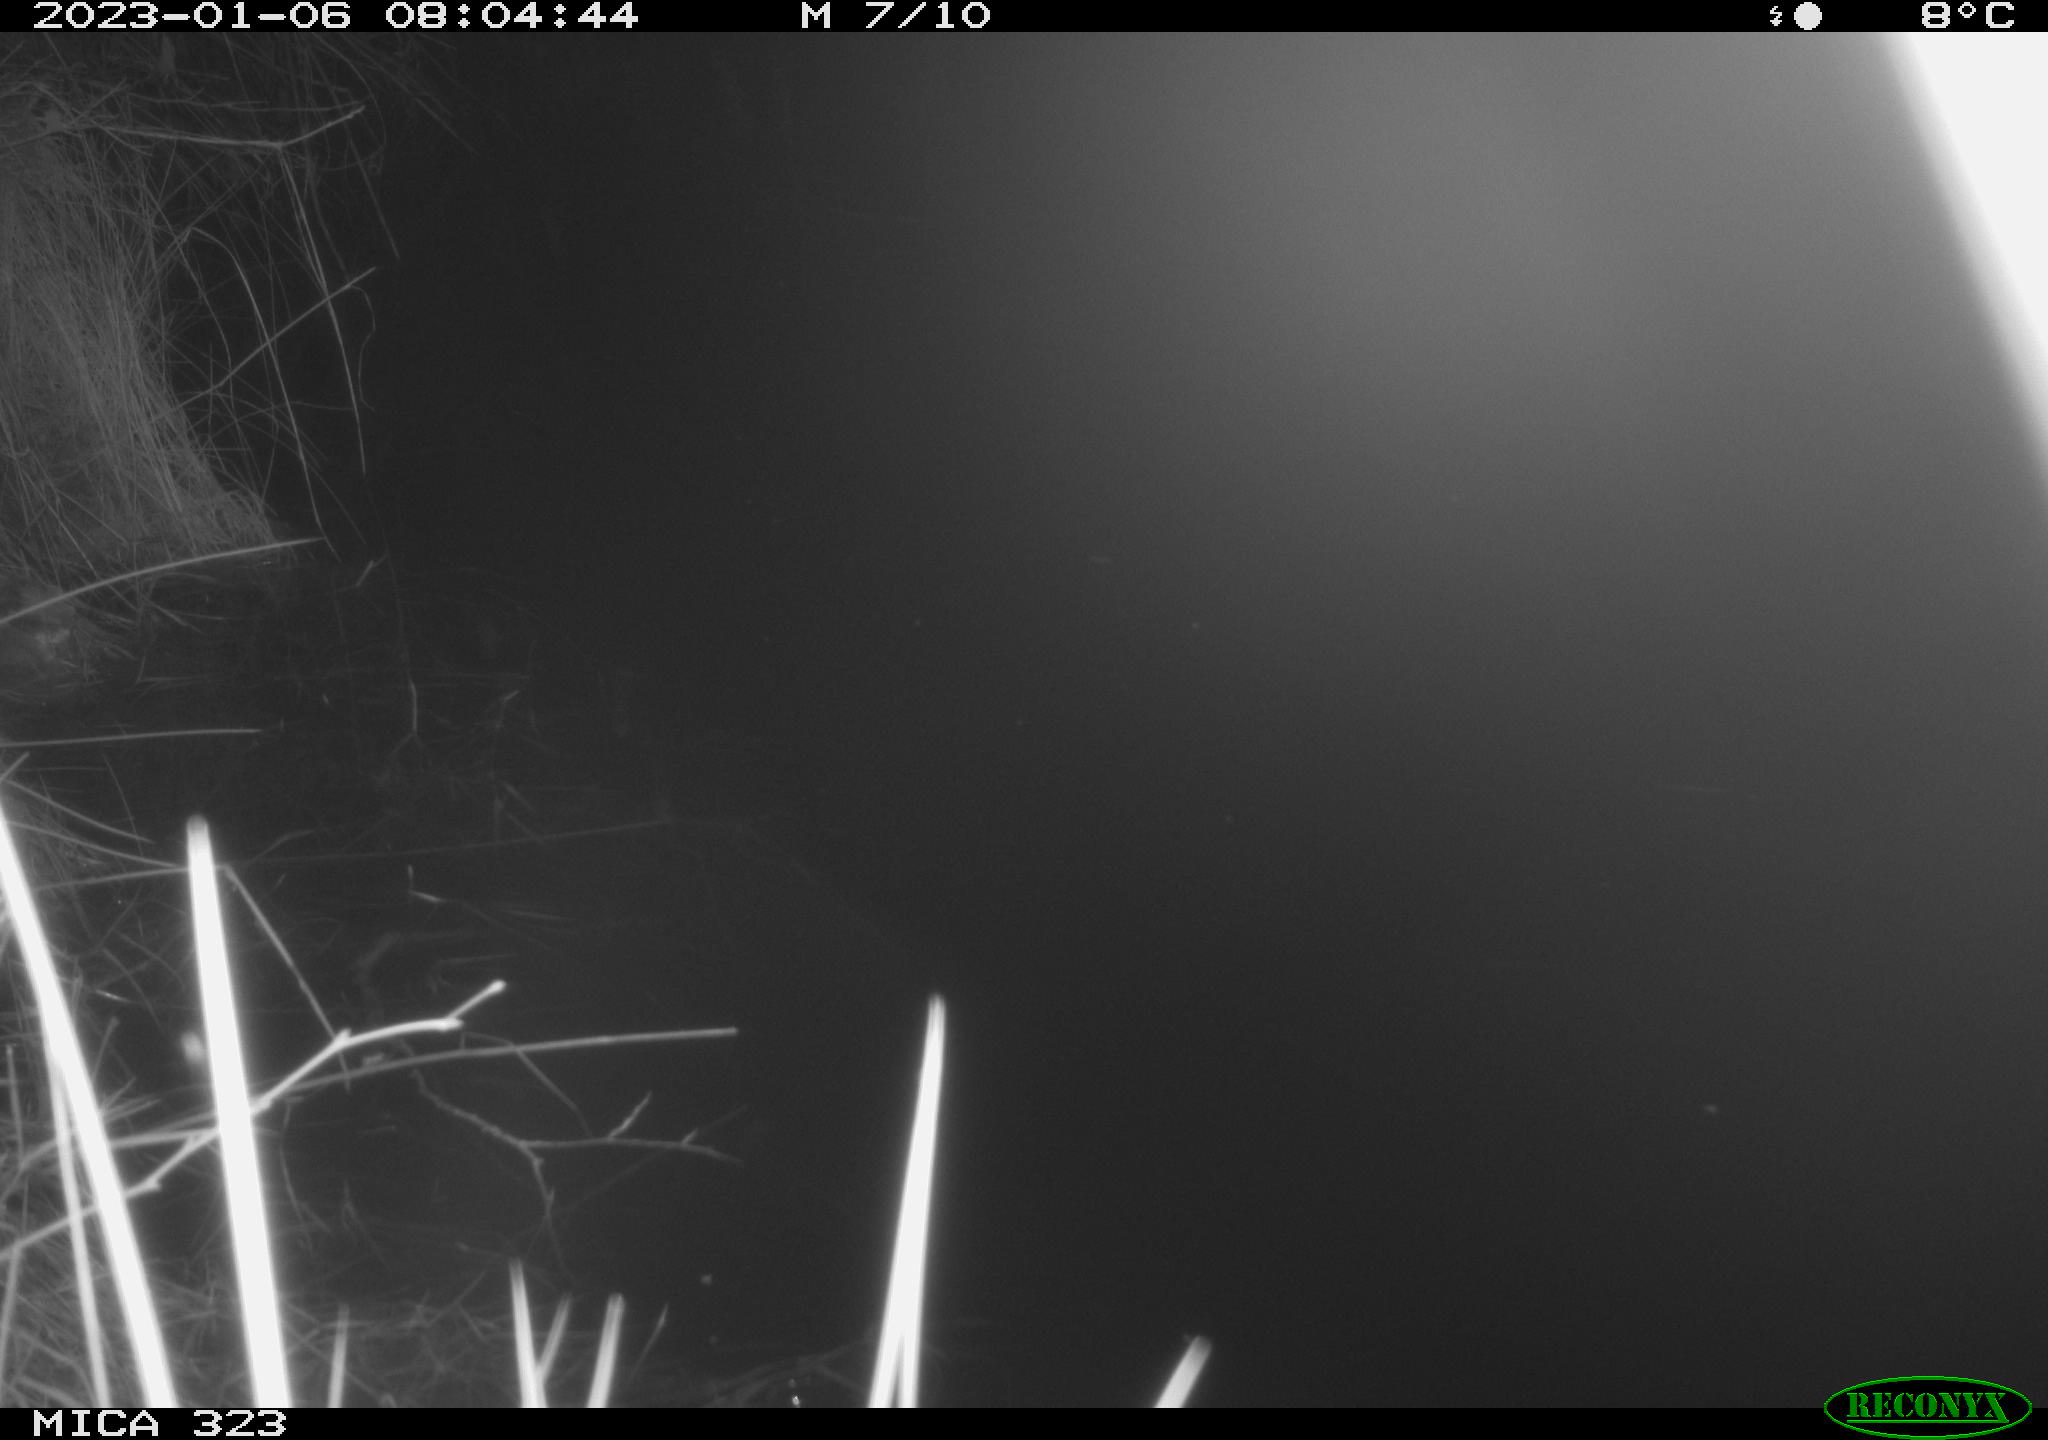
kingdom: Animalia
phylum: Chordata
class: Mammalia
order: Rodentia
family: Cricetidae
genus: Ondatra
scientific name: Ondatra zibethicus
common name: Muskrat
